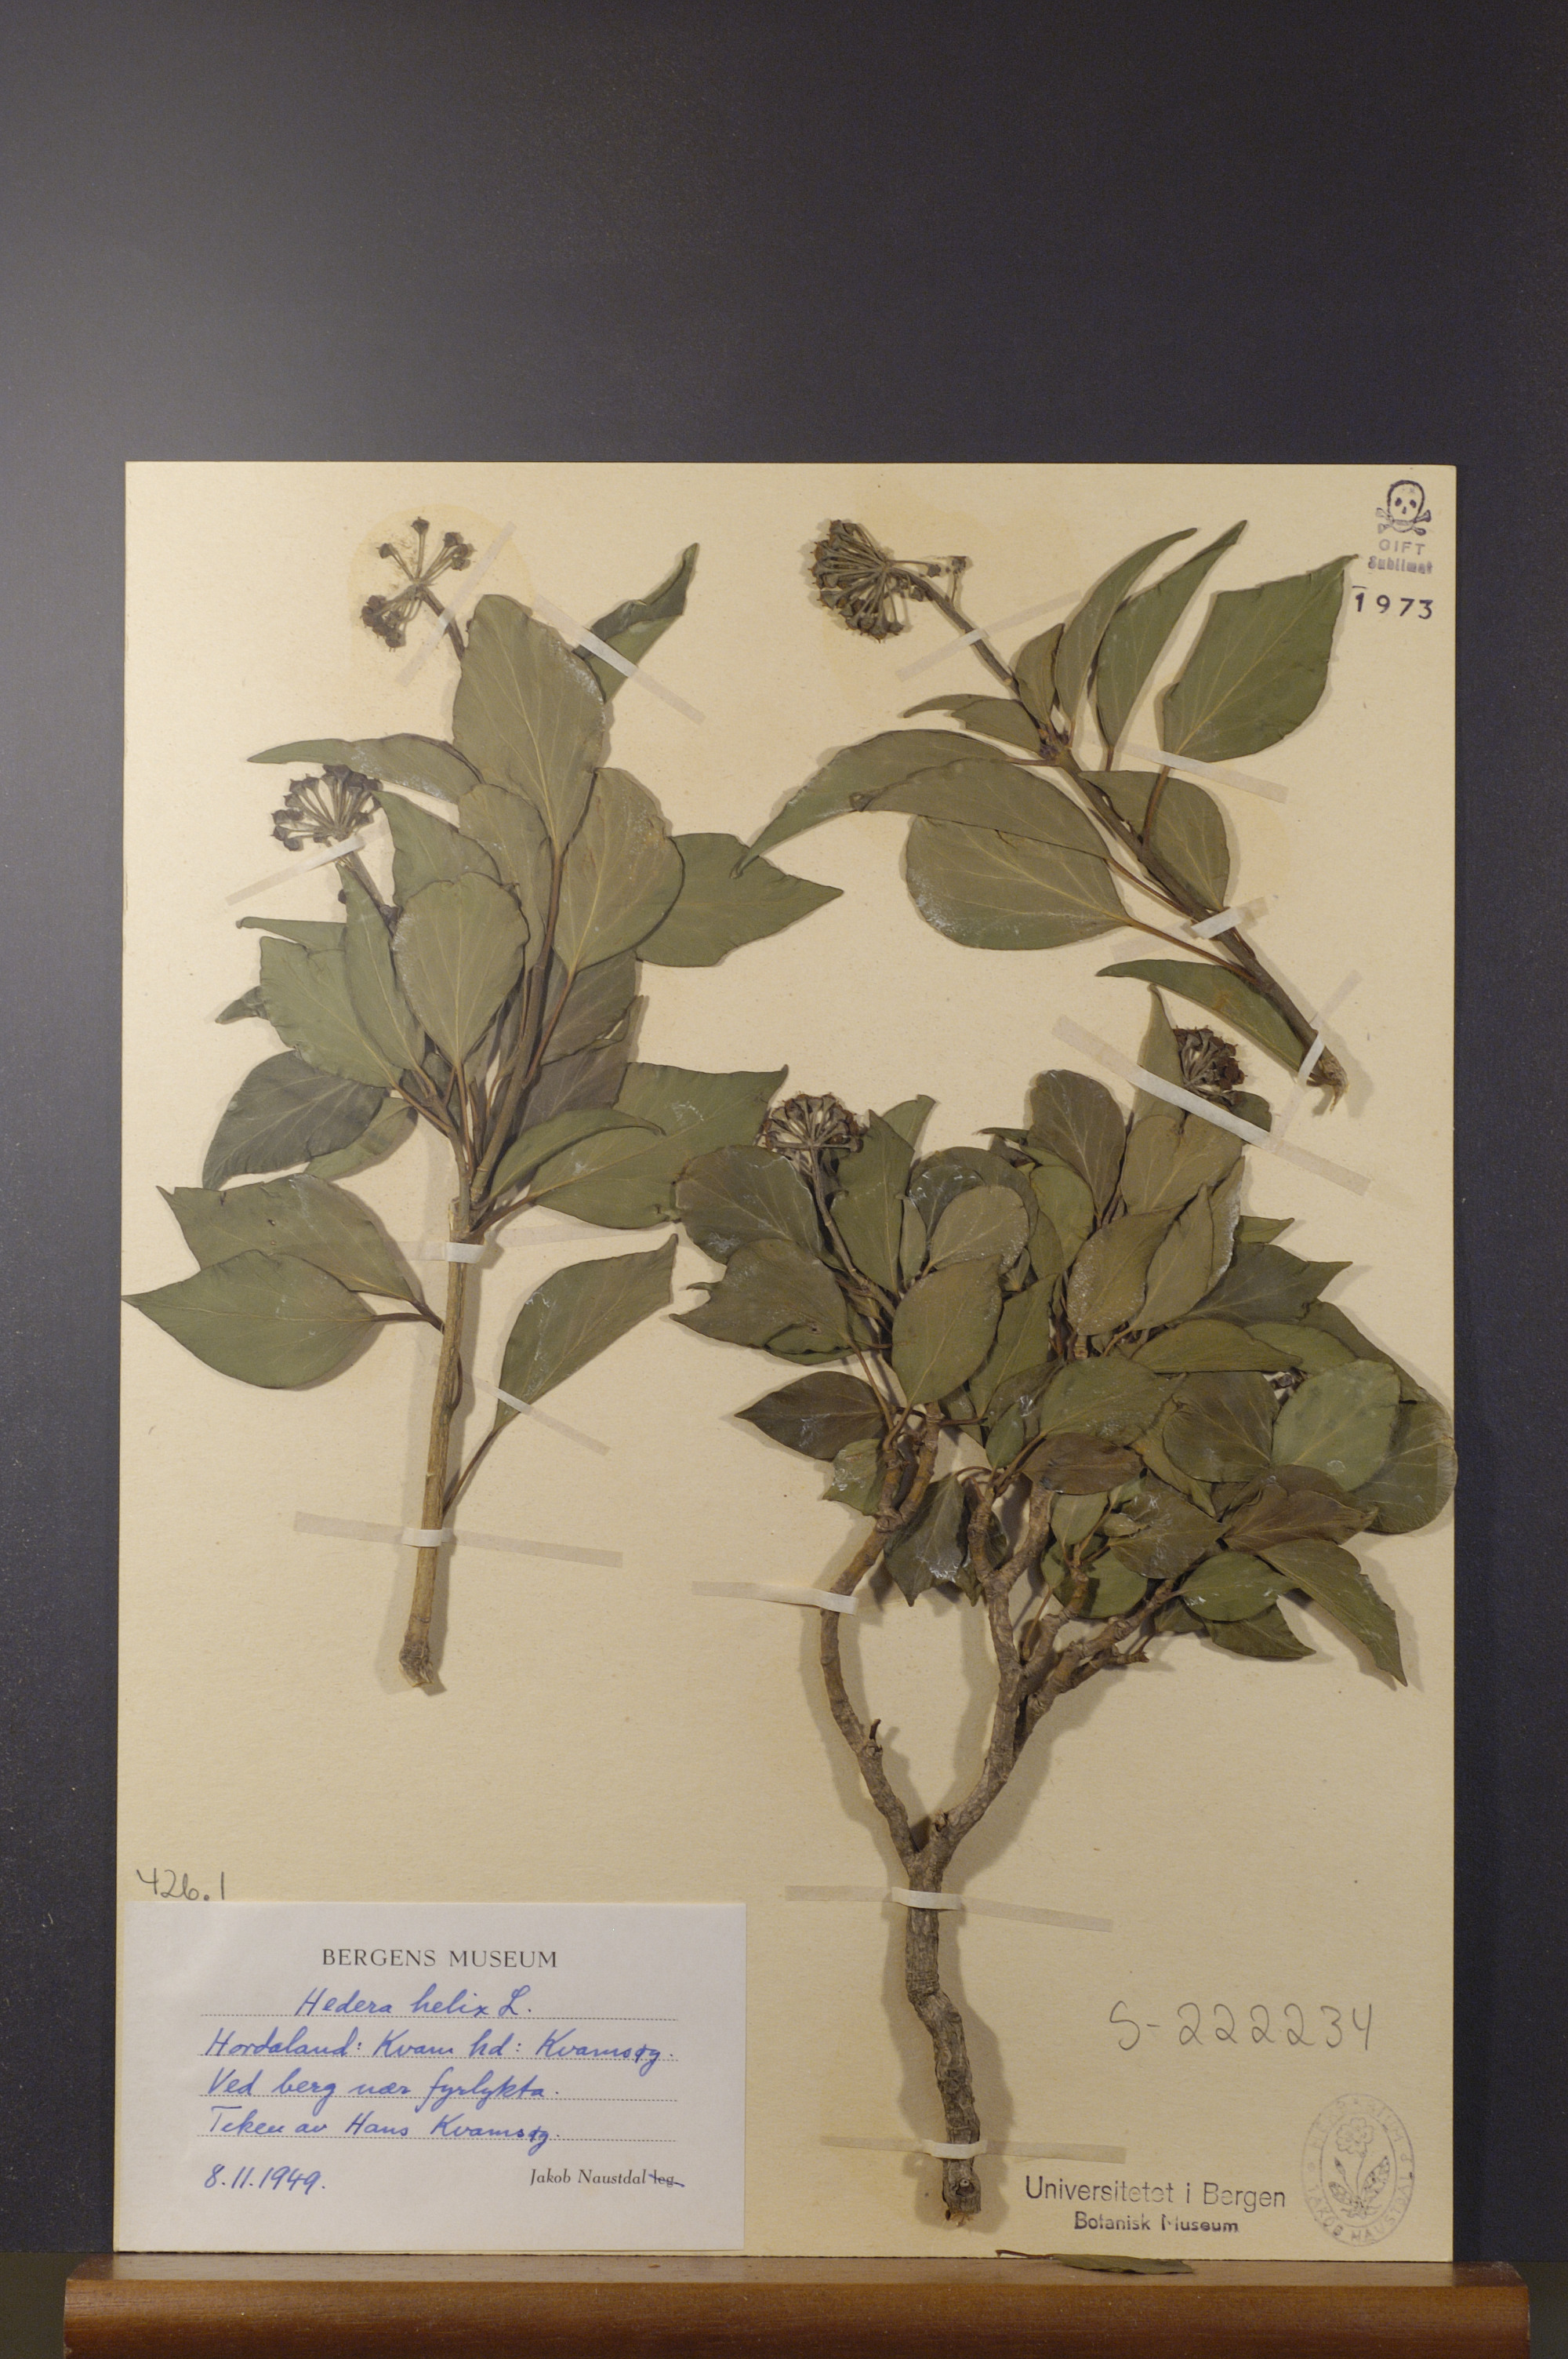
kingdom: Plantae
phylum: Tracheophyta
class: Magnoliopsida
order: Apiales
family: Araliaceae
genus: Hedera
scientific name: Hedera helix
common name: Ivy
